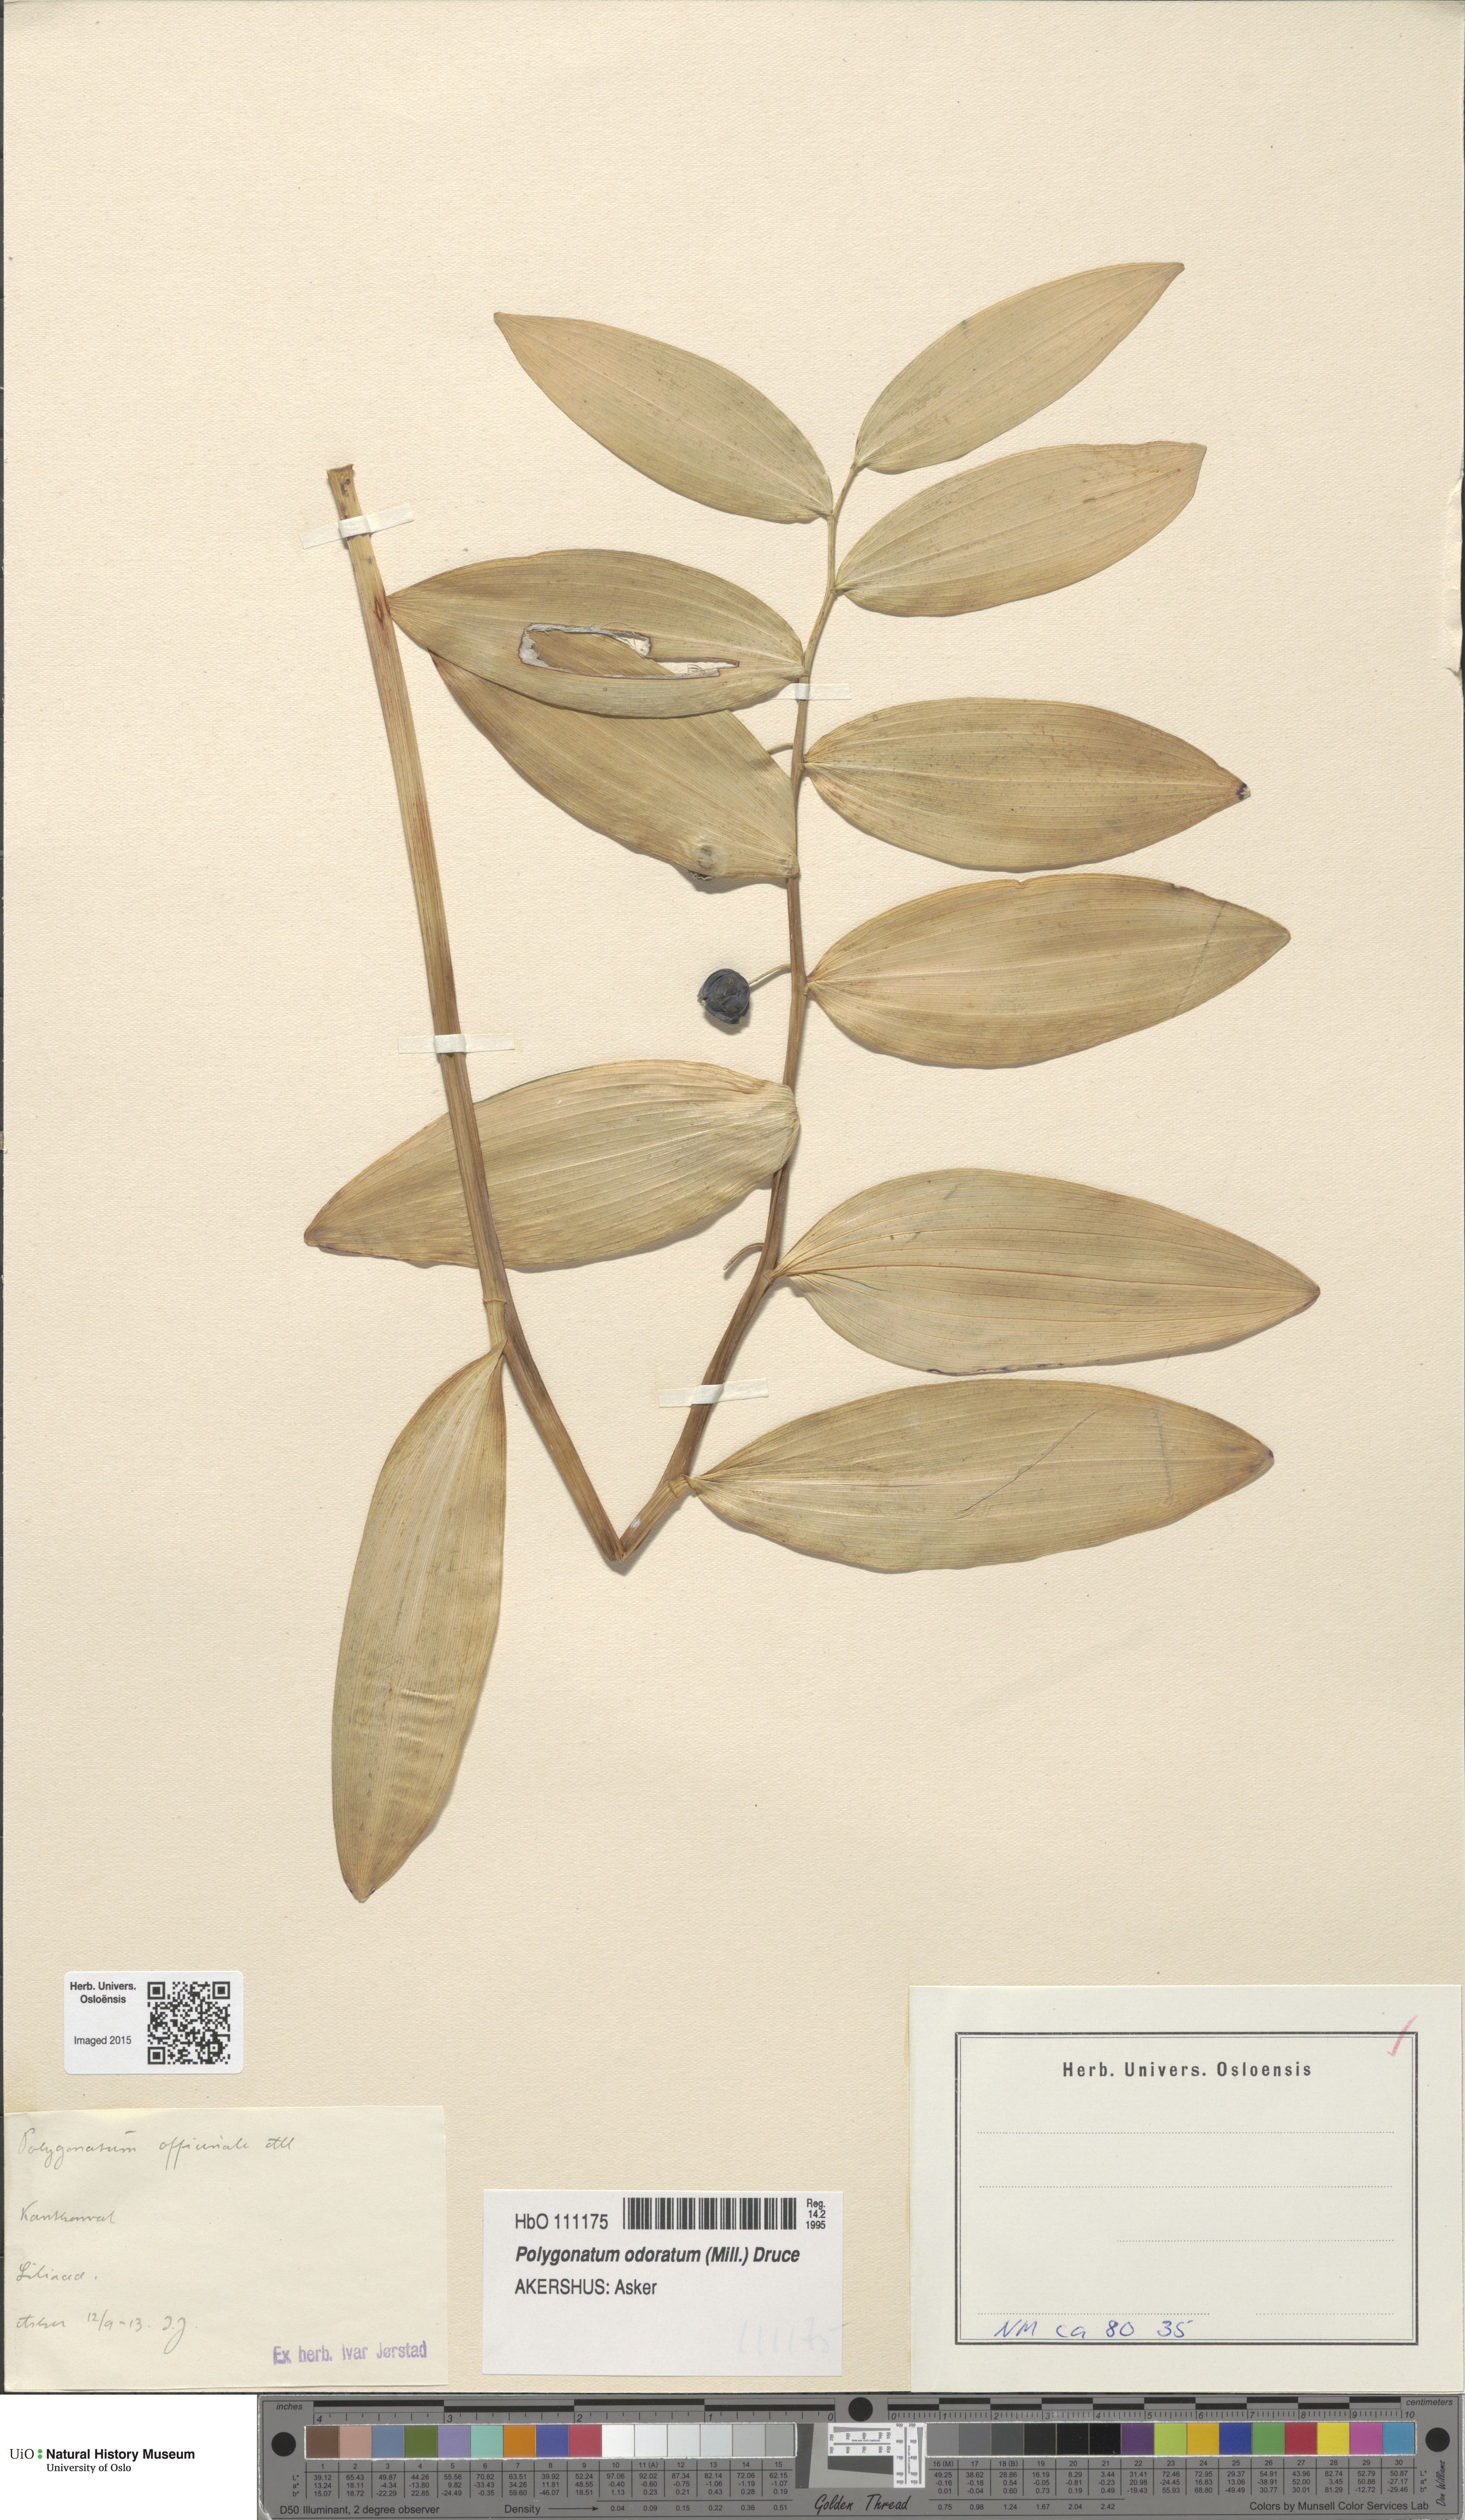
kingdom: Plantae
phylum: Tracheophyta
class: Liliopsida
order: Asparagales
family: Asparagaceae
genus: Polygonatum
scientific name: Polygonatum odoratum
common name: Angular solomon's-seal
